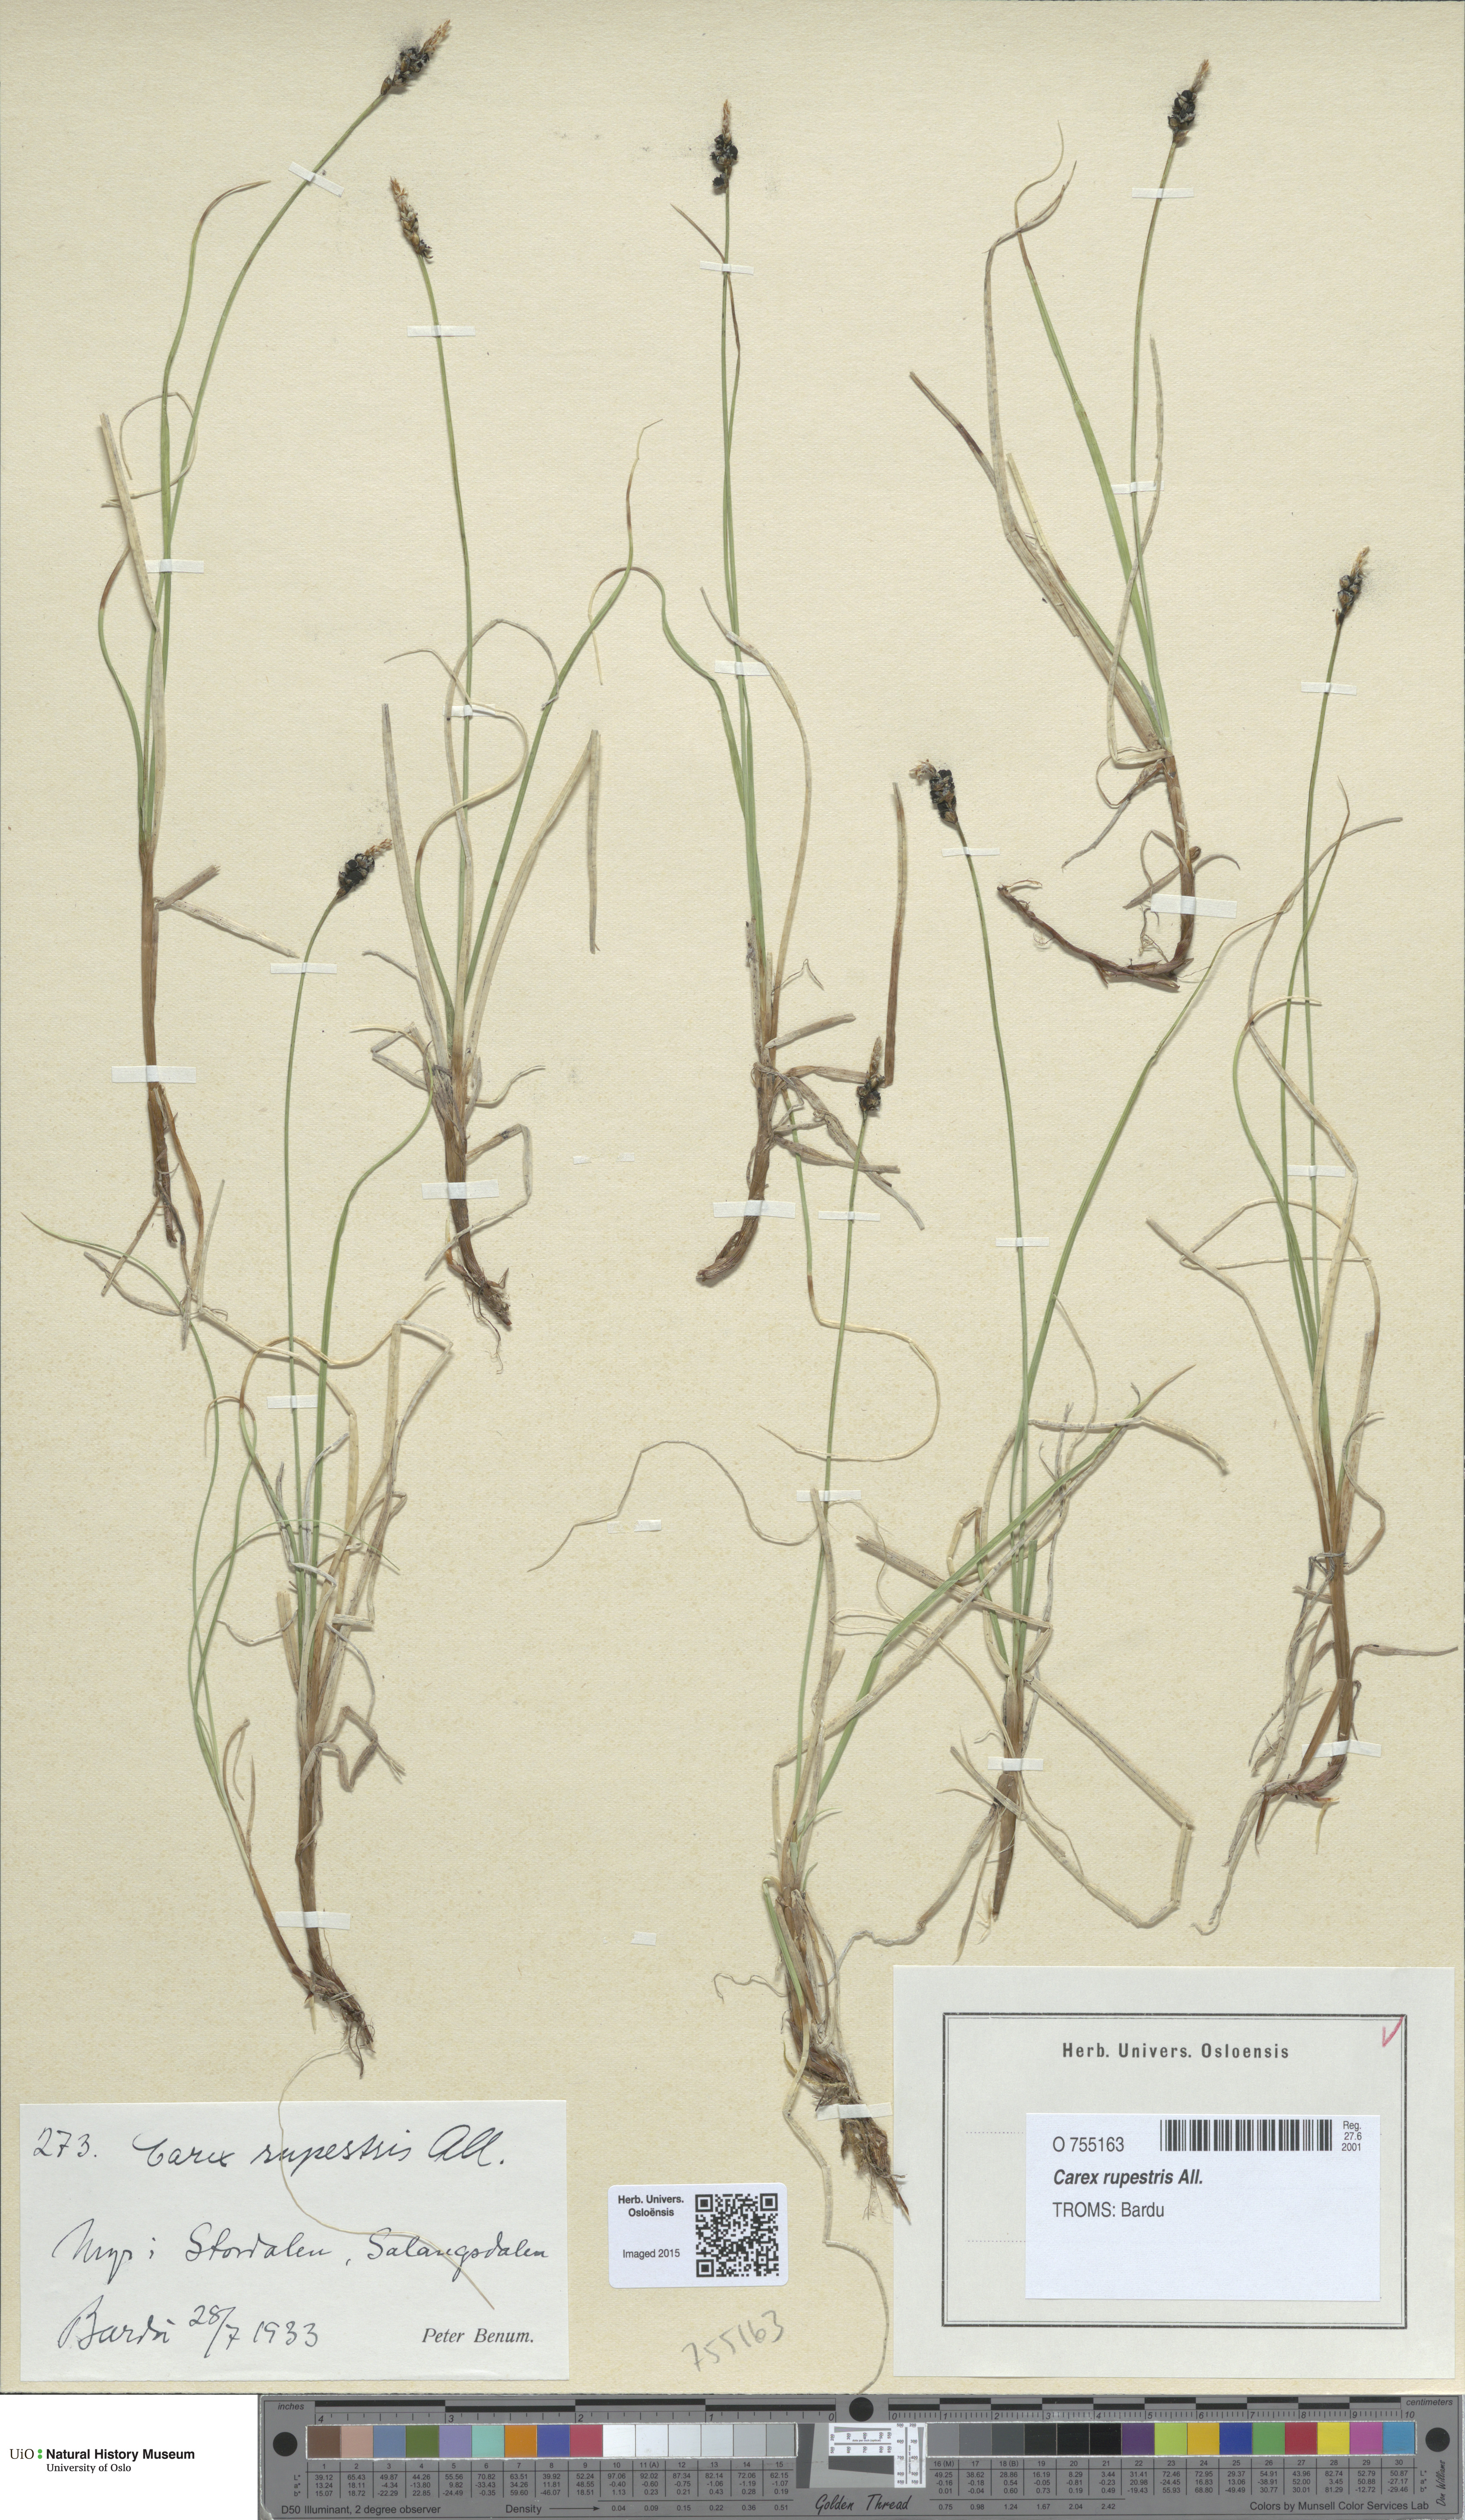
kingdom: Plantae
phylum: Tracheophyta
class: Liliopsida
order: Poales
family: Cyperaceae
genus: Carex
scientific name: Carex rupestris
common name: Rock sedge
